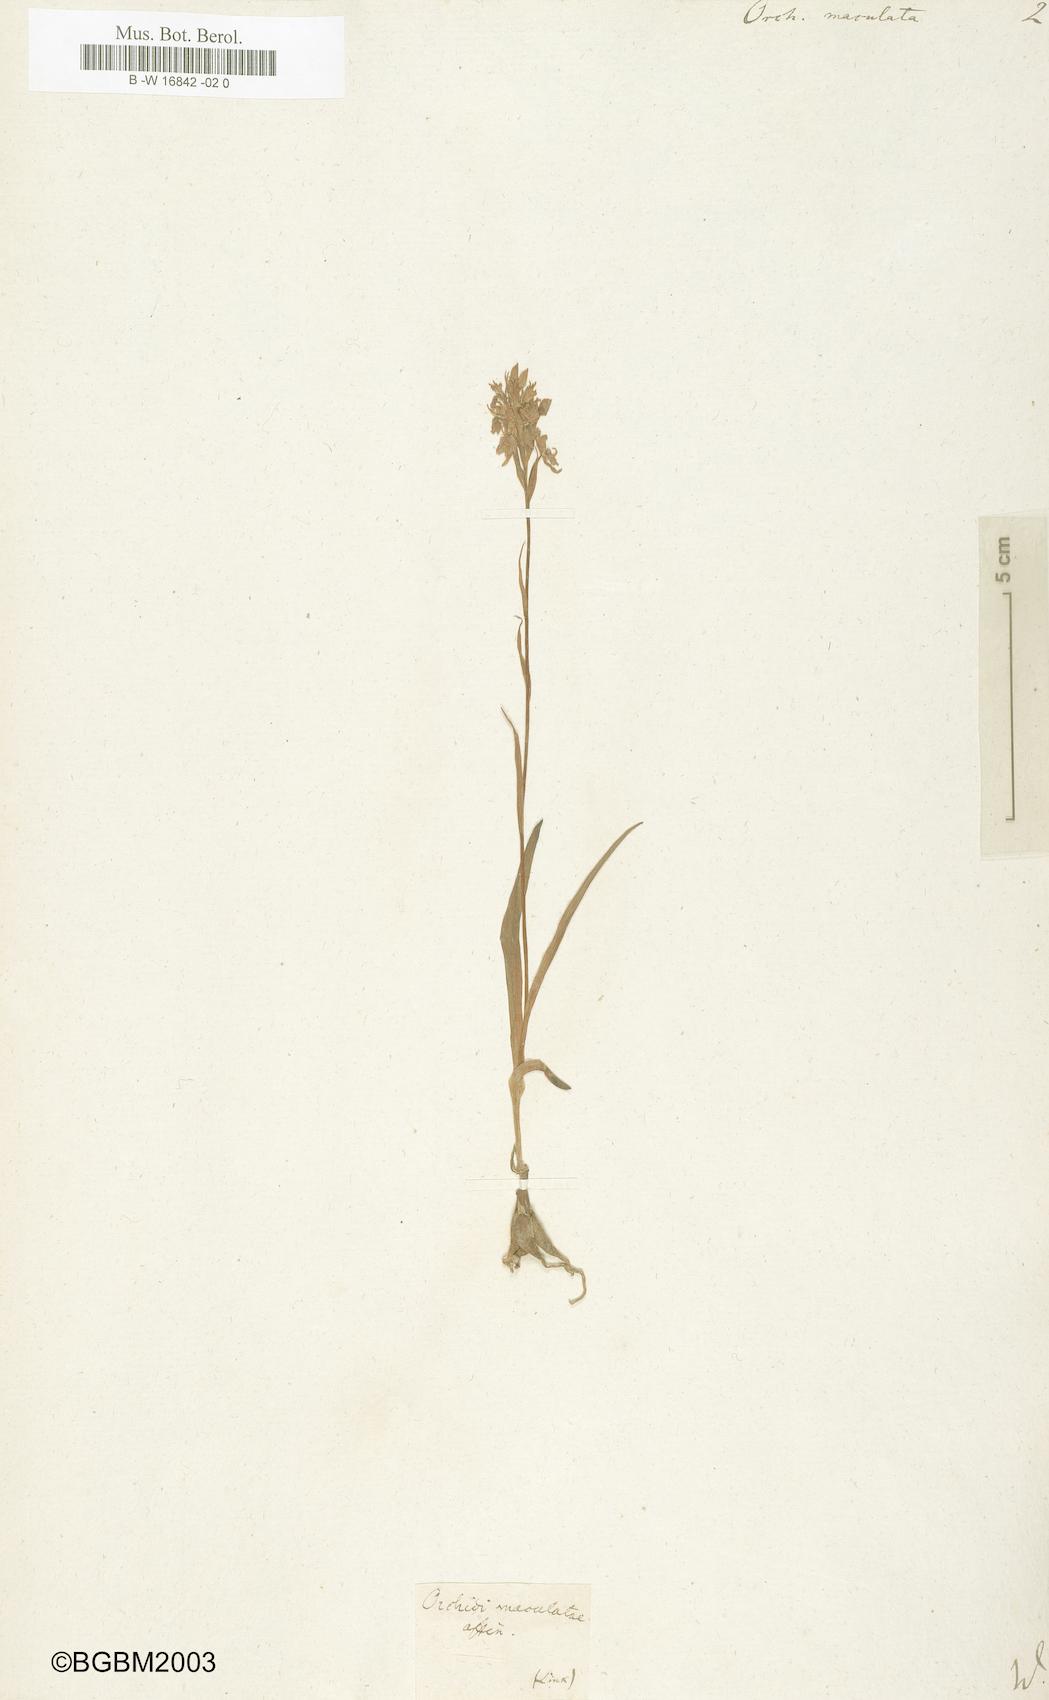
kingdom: Plantae
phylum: Tracheophyta
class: Liliopsida
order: Asparagales
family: Orchidaceae
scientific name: Orchidaceae
